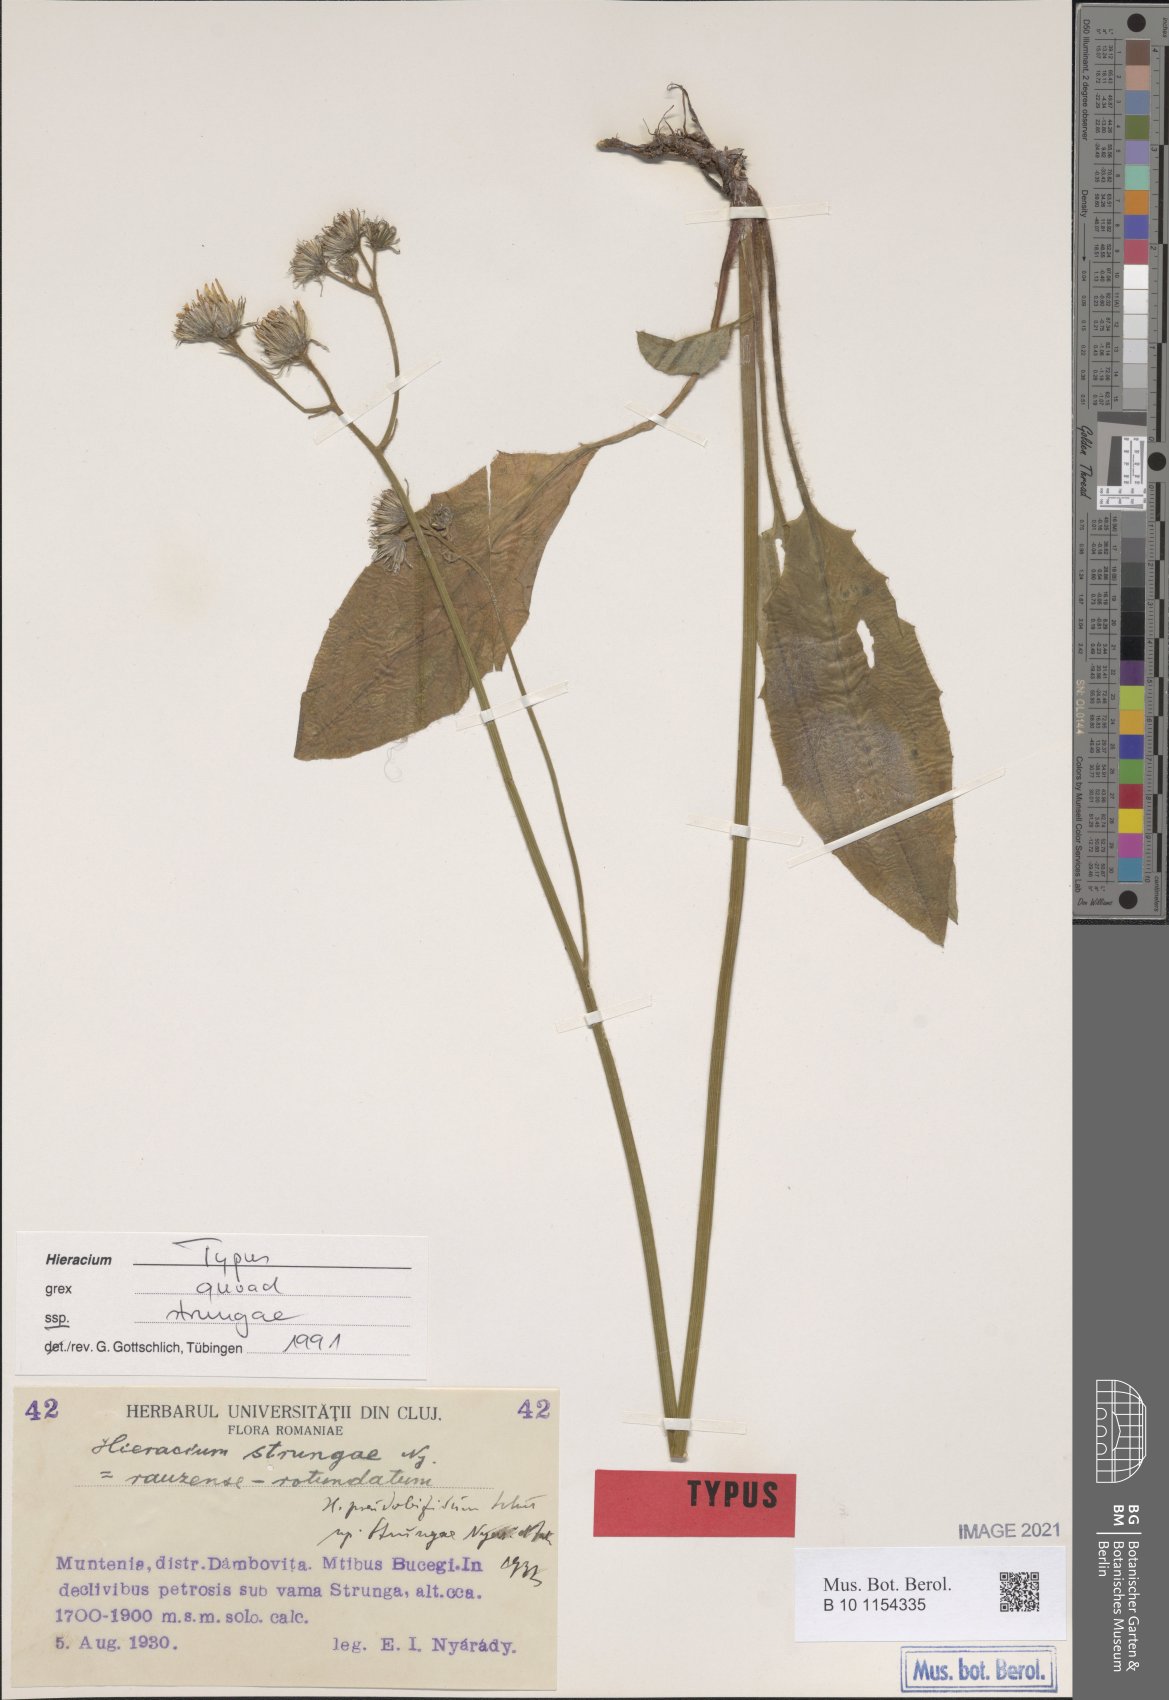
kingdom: Plantae
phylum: Tracheophyta
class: Magnoliopsida
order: Asterales
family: Asteraceae
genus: Hieracium
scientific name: Hieracium pseudobifidum
